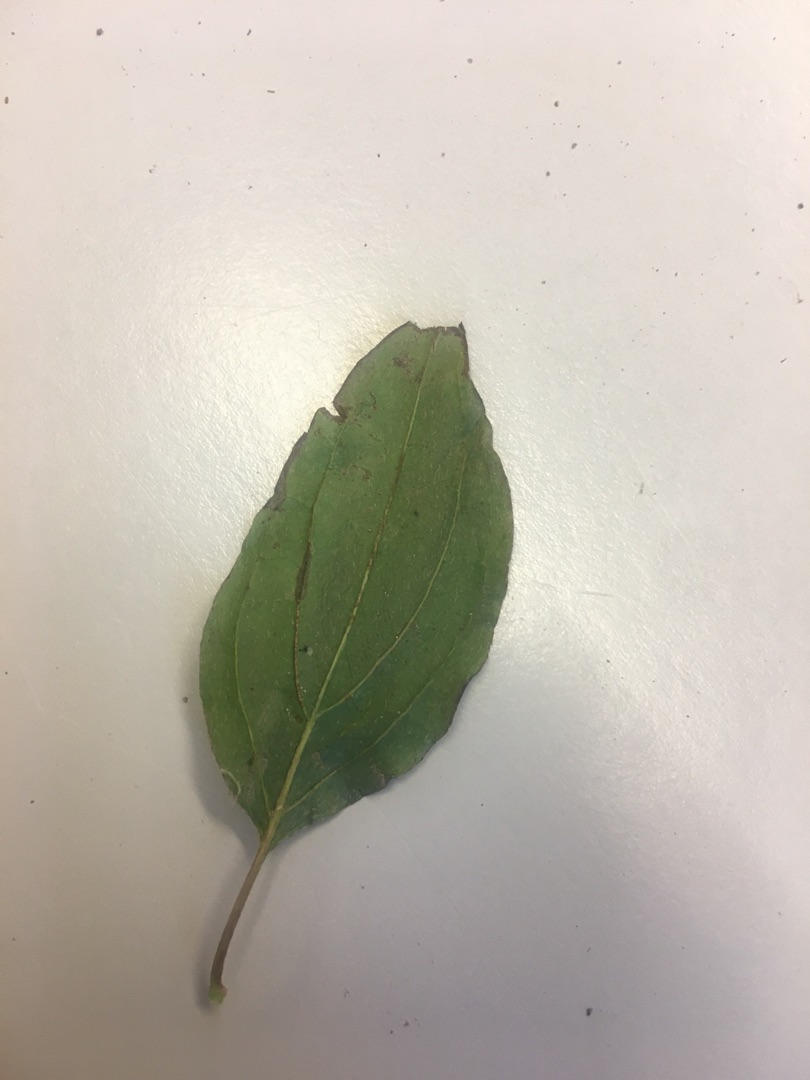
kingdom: Plantae
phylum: Tracheophyta
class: Magnoliopsida
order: Cornales
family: Cornaceae
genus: Cornus
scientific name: Cornus
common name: Kornelslægten
